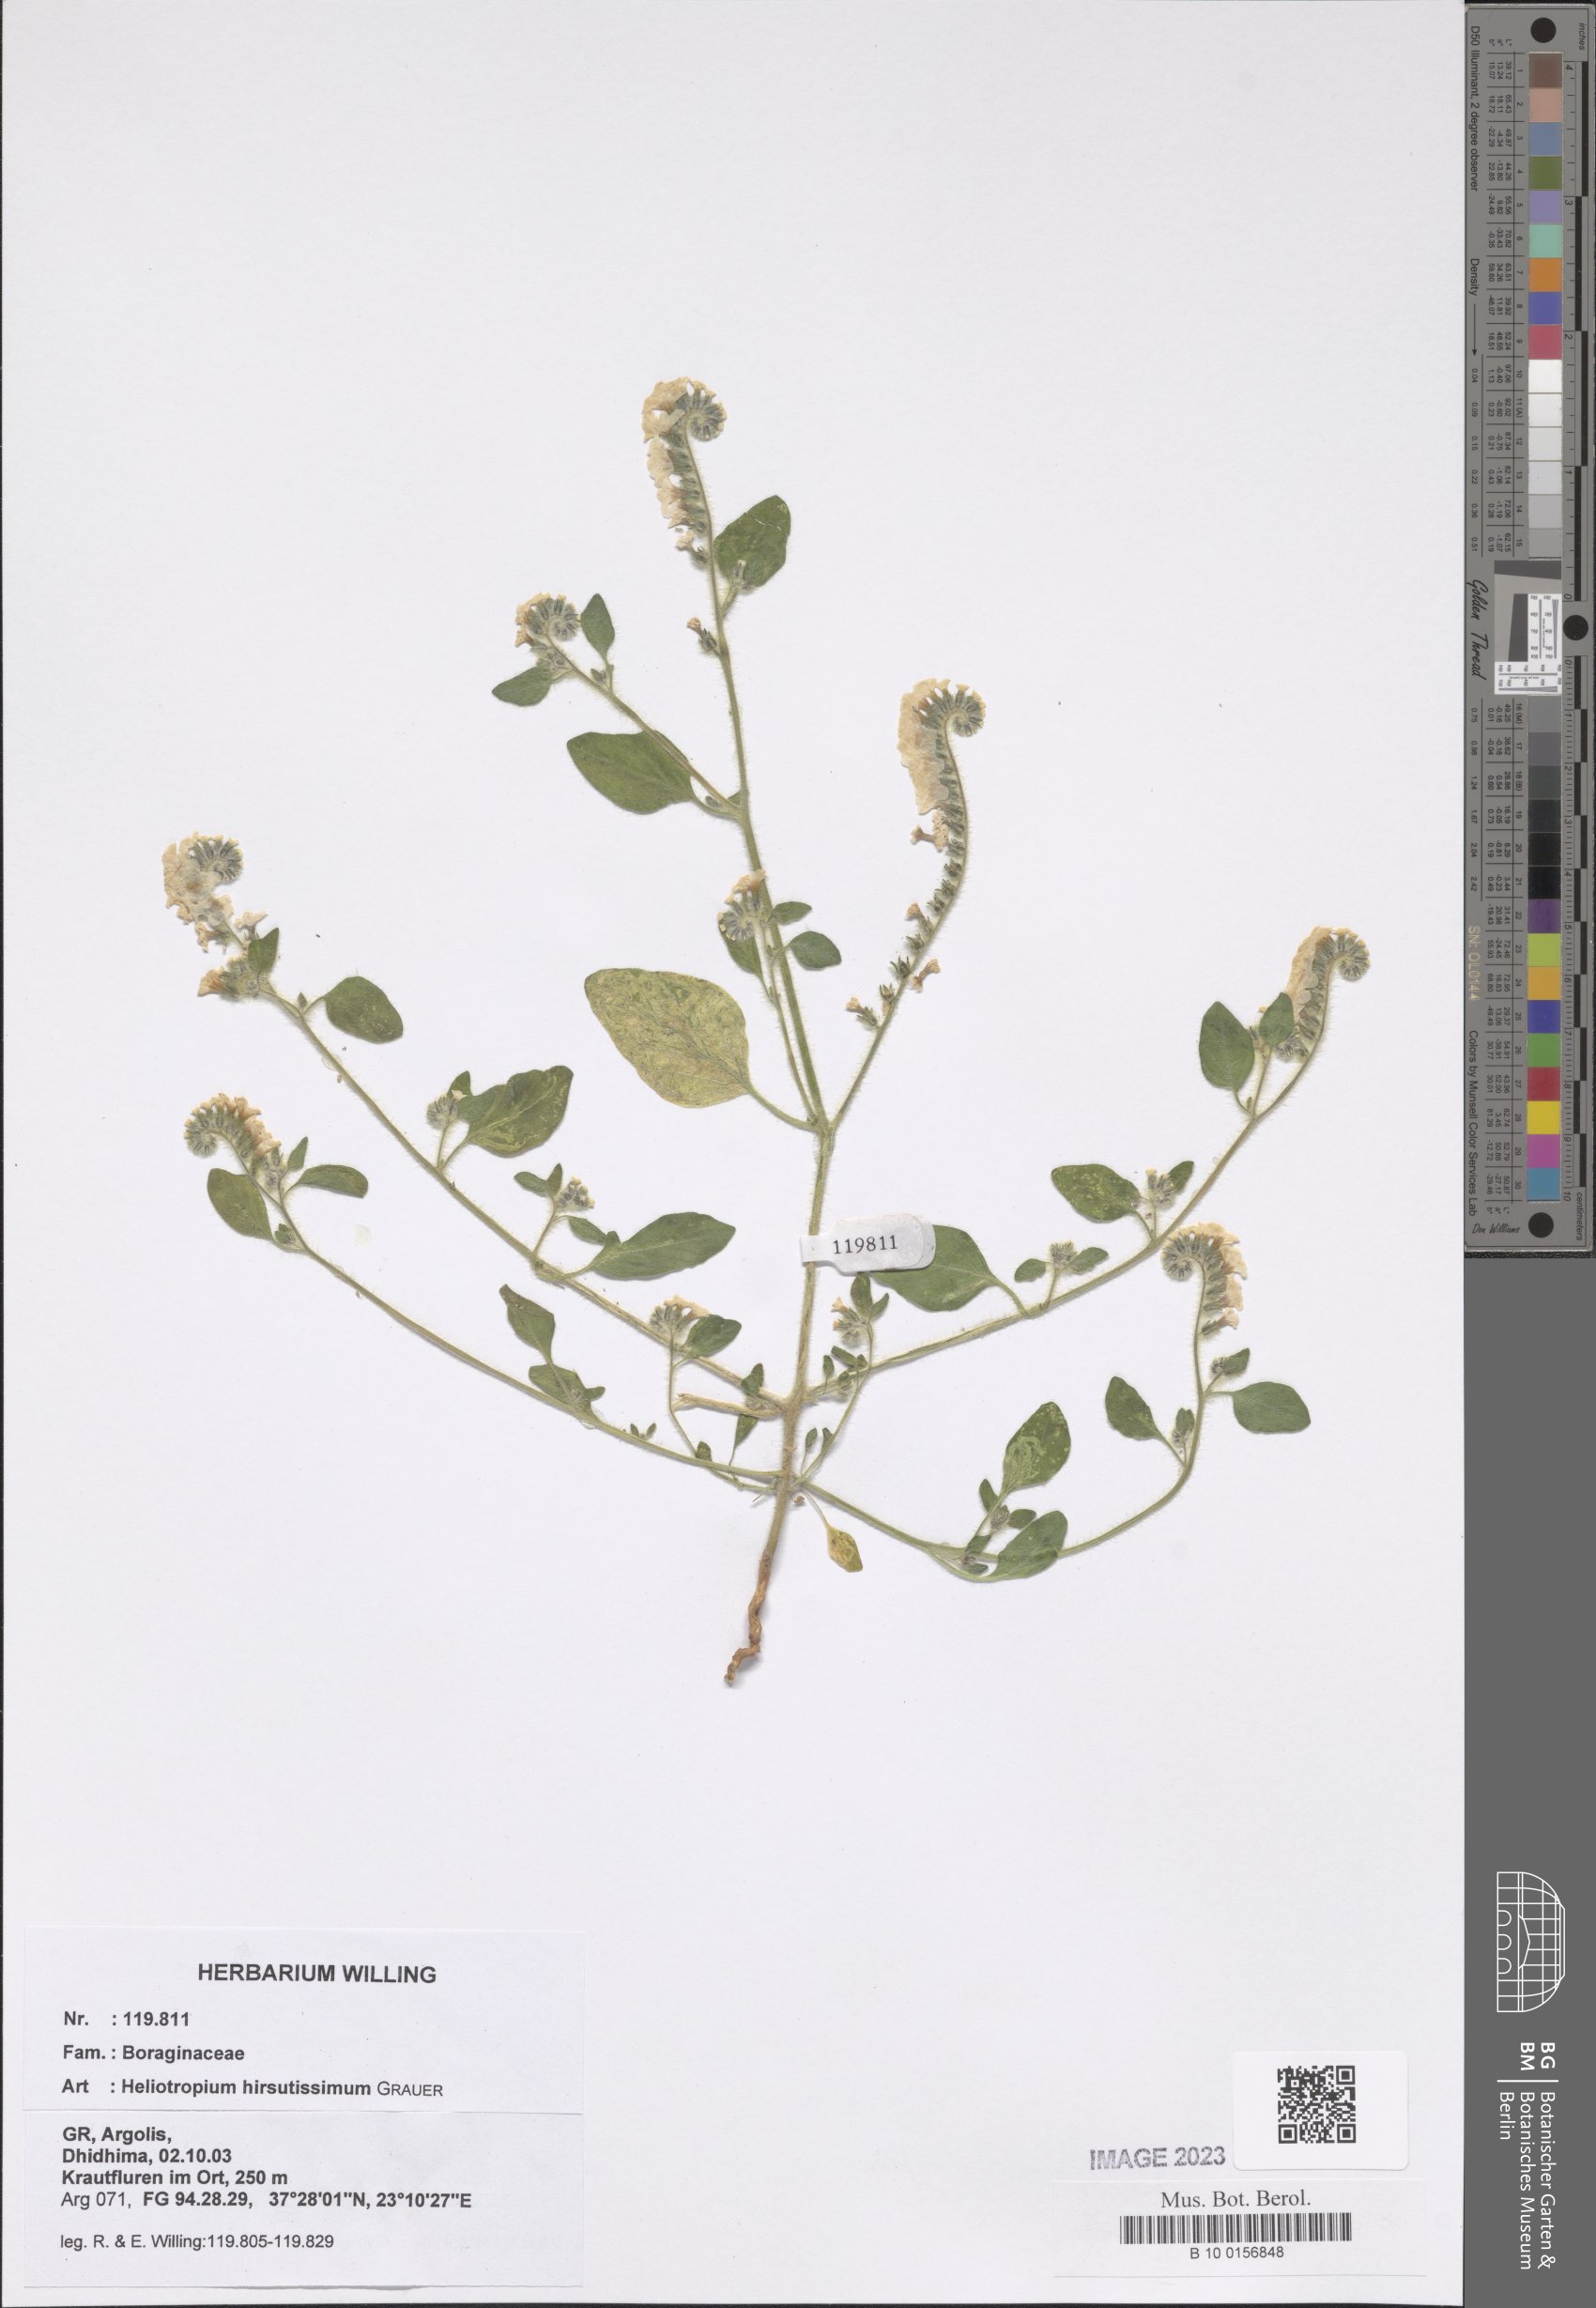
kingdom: Plantae
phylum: Tracheophyta
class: Magnoliopsida
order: Boraginales
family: Heliotropiaceae
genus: Heliotropium
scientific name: Heliotropium hirsutissimum
